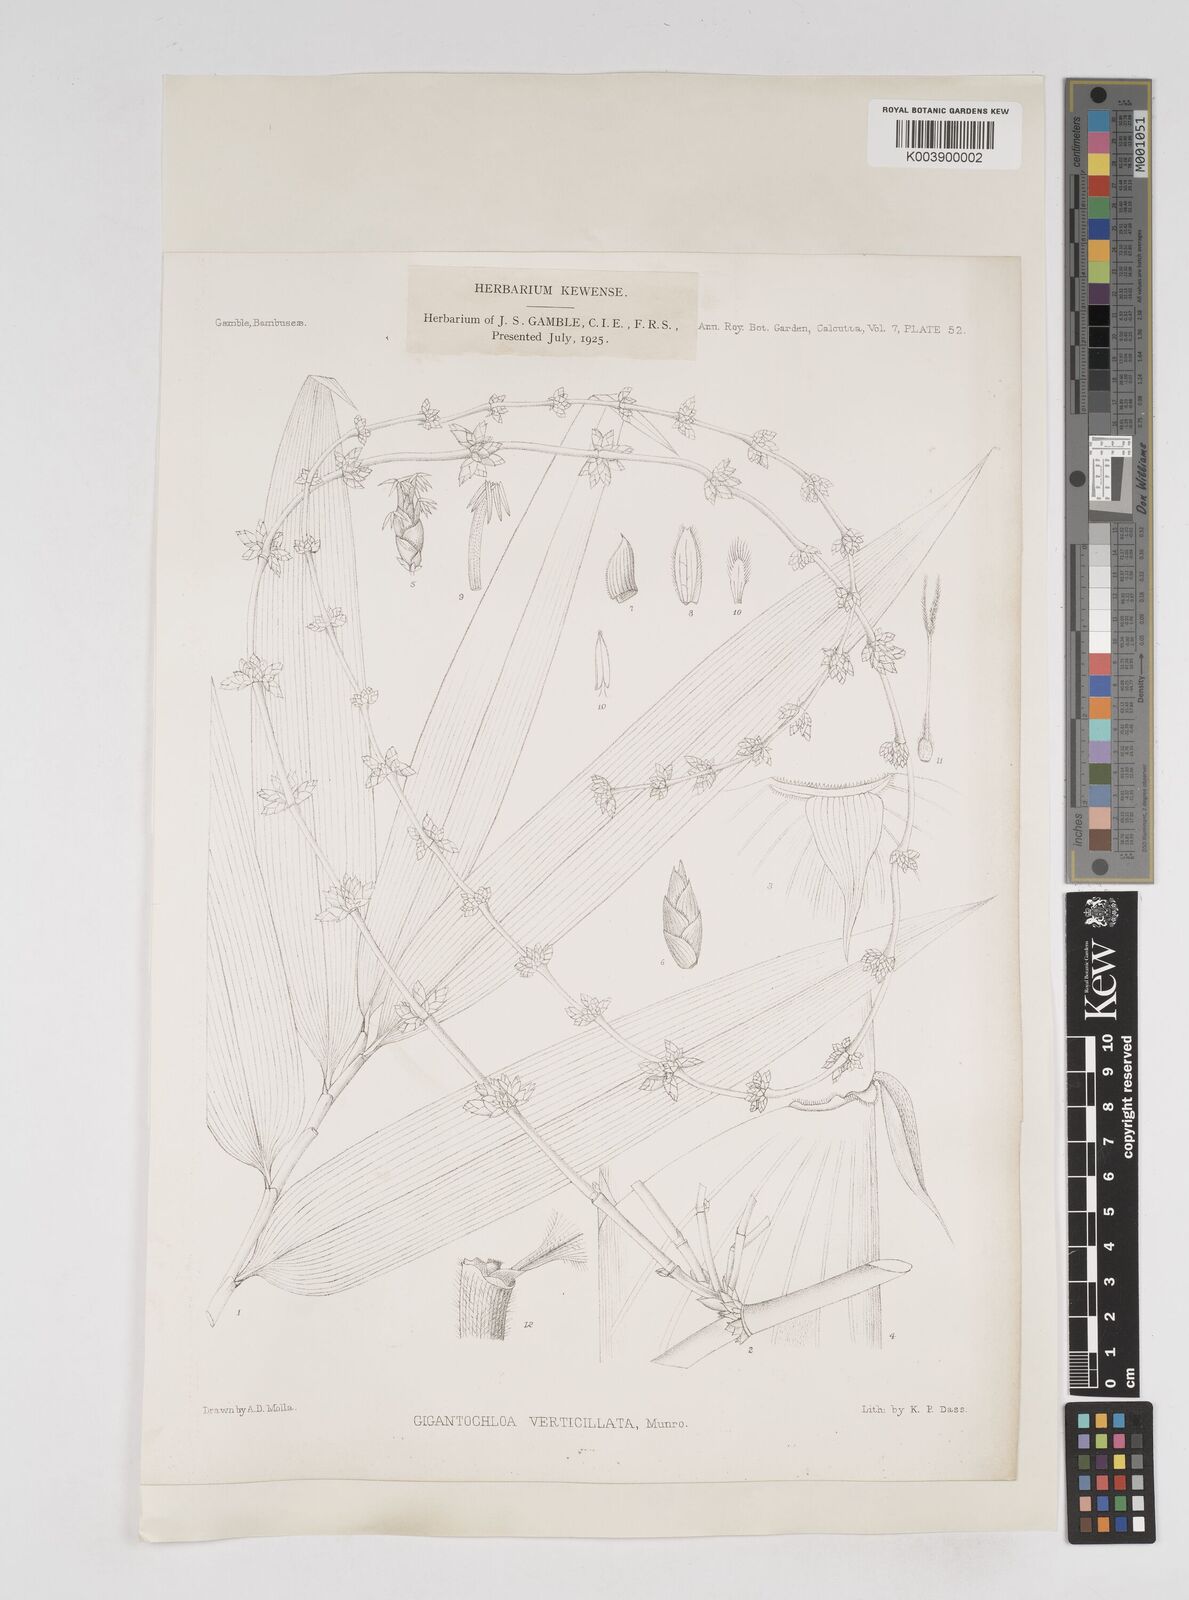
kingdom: Plantae
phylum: Tracheophyta
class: Liliopsida
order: Poales
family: Poaceae
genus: Gigantochloa
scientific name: Gigantochloa verticillata
